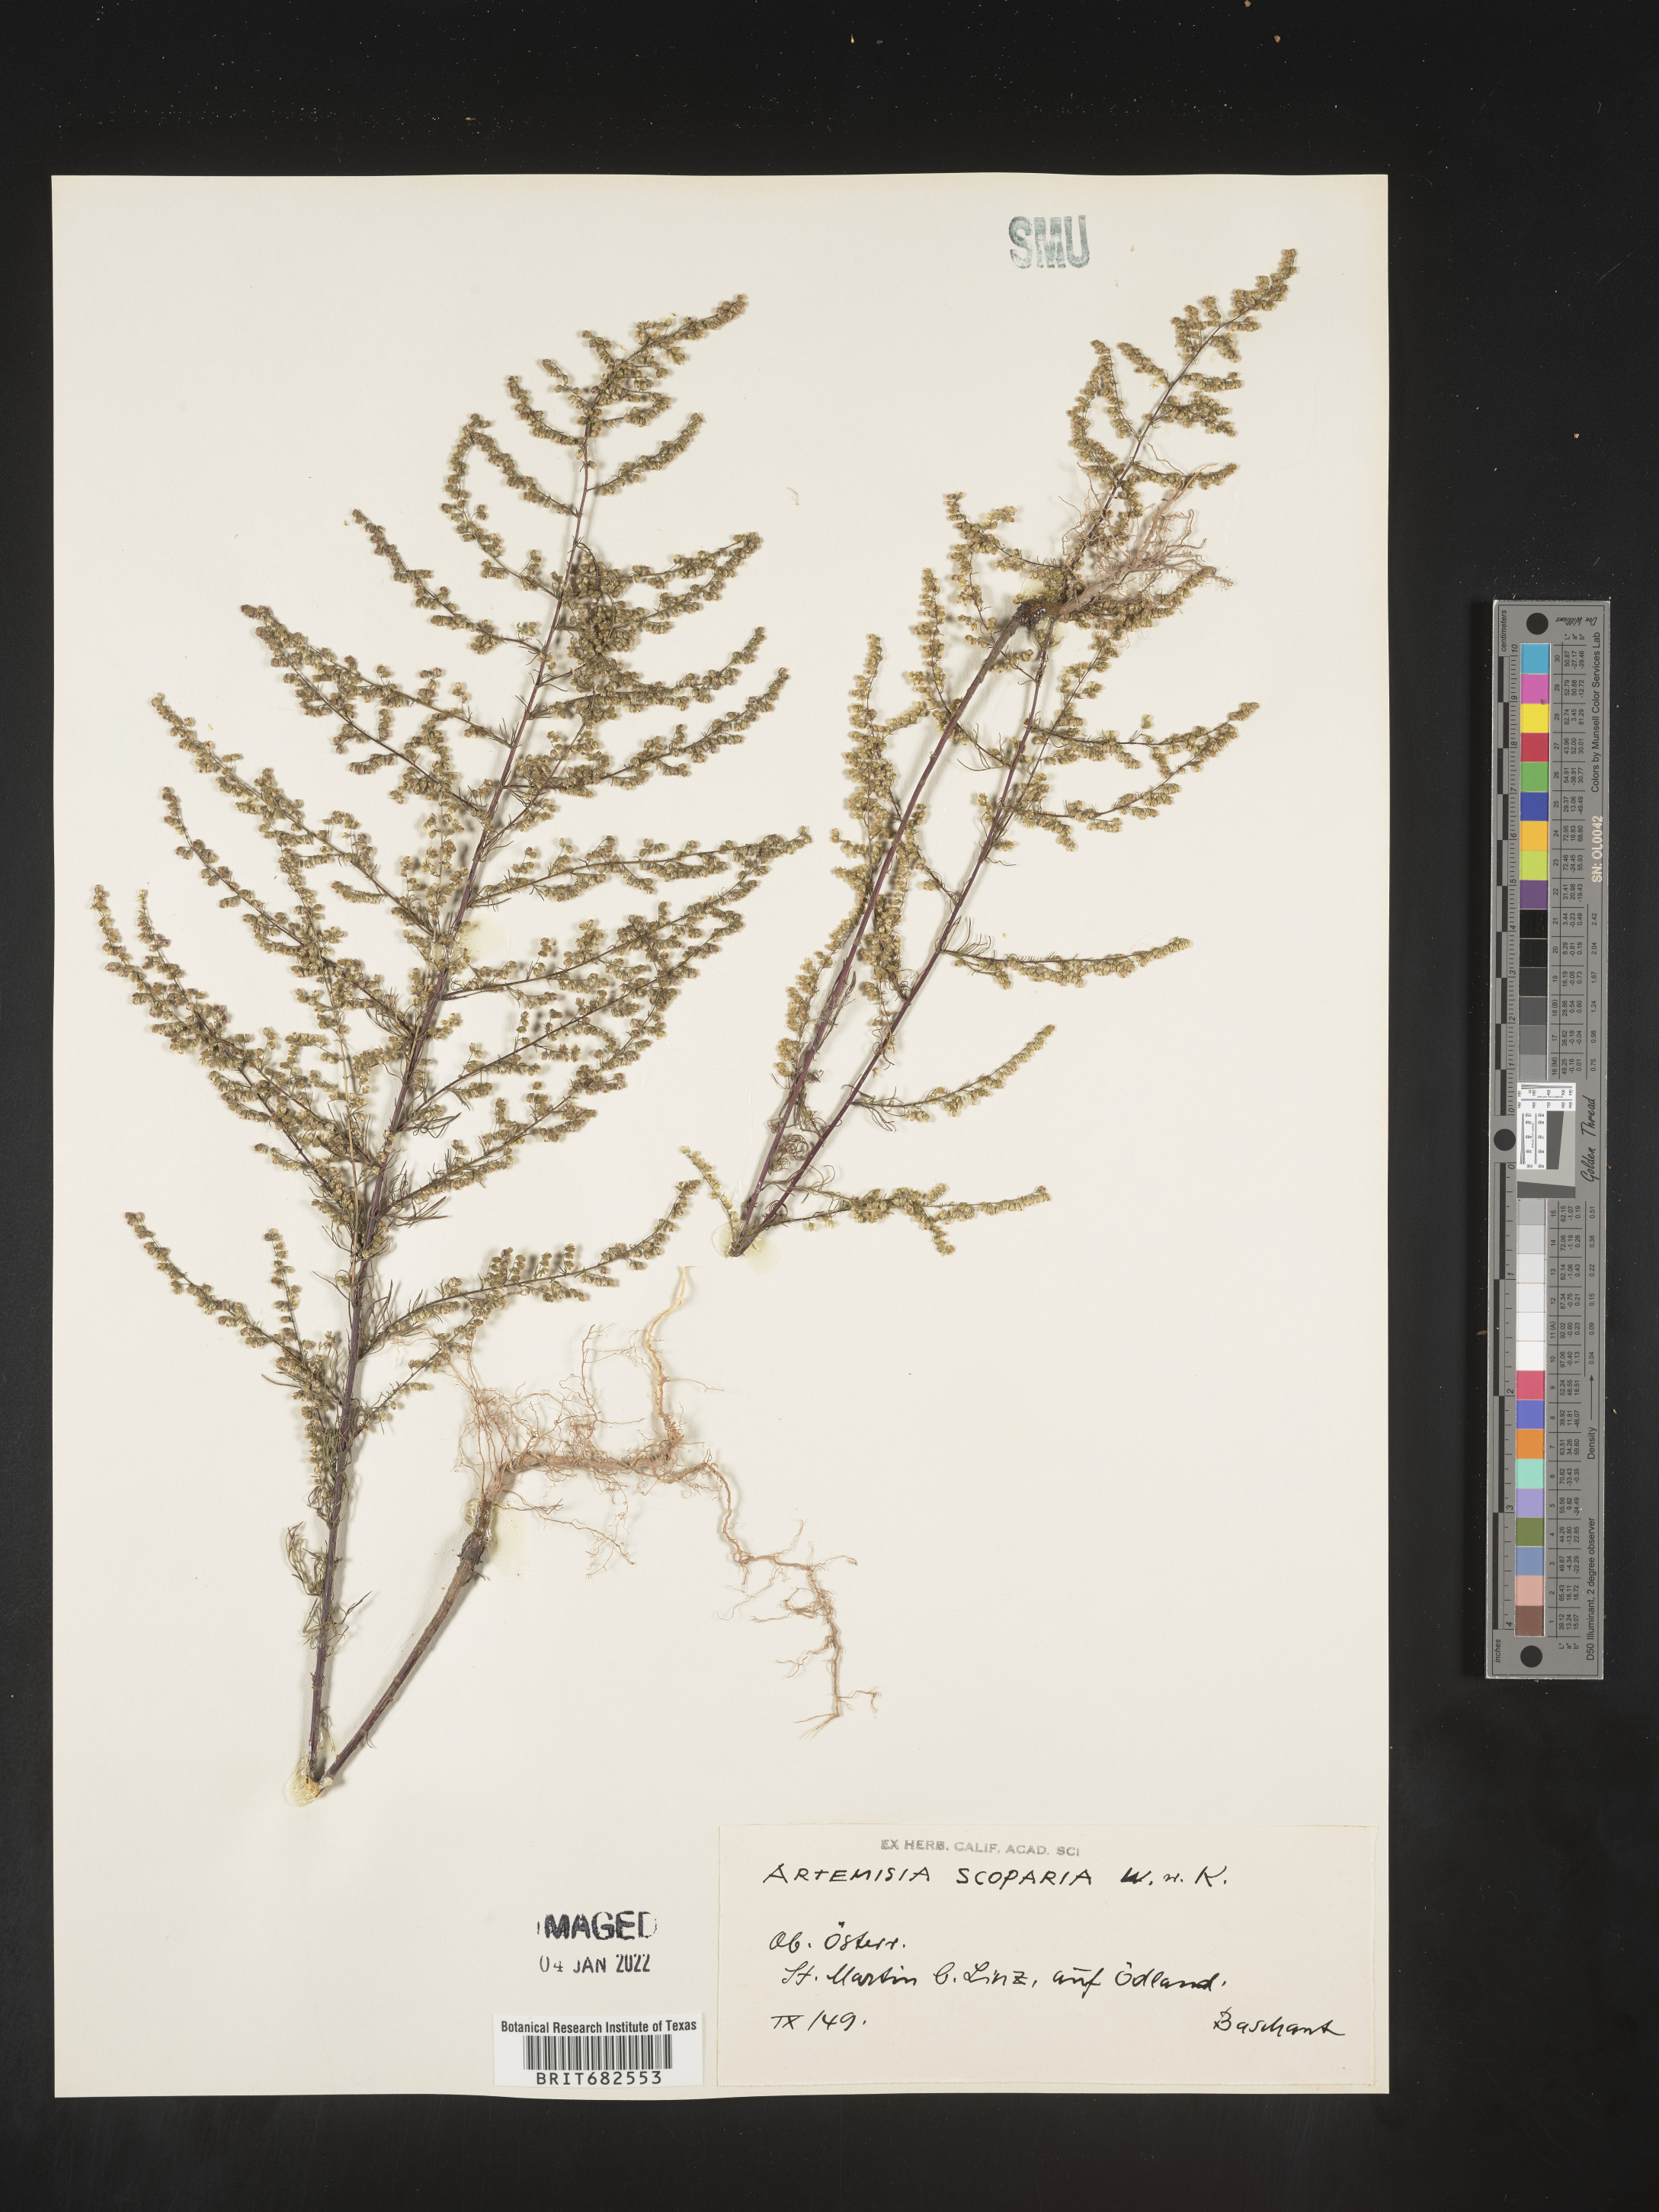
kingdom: Plantae
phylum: Tracheophyta
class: Magnoliopsida
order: Asterales
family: Asteraceae
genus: Artemisia
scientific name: Artemisia
